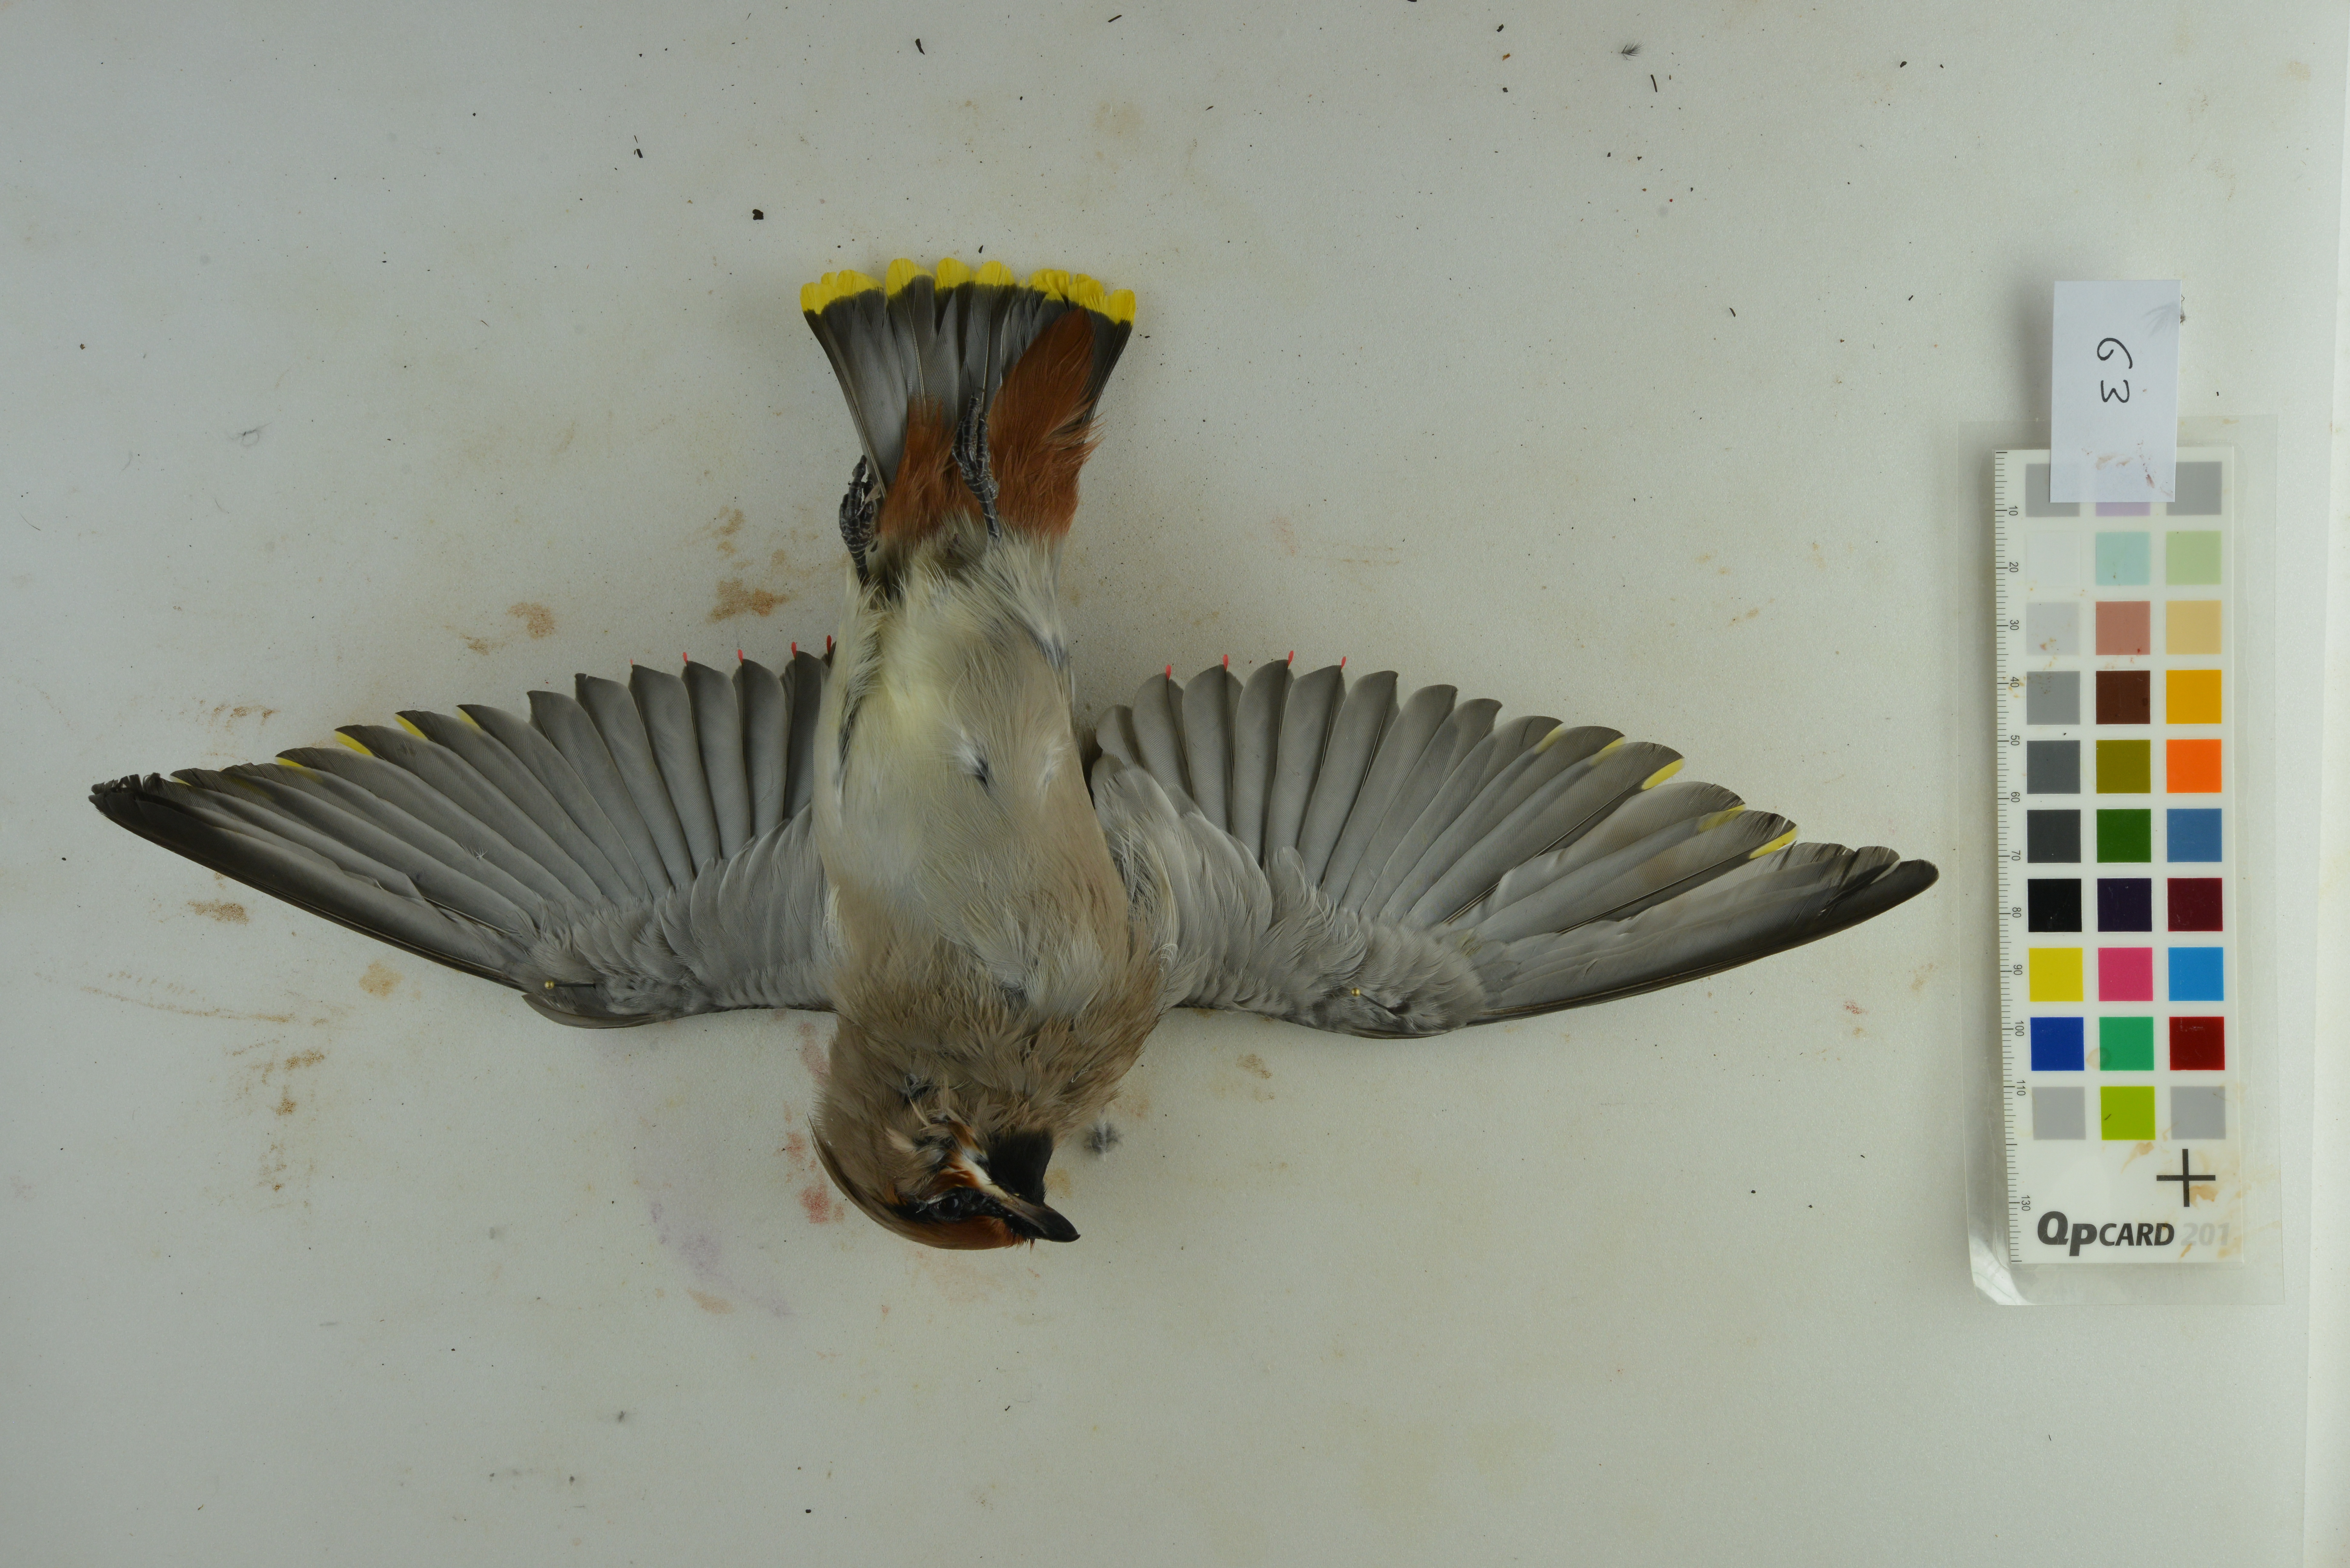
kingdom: Animalia
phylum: Chordata
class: Aves
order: Passeriformes
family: Bombycillidae
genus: Bombycilla
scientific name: Bombycilla garrulus
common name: Bohemian waxwing
